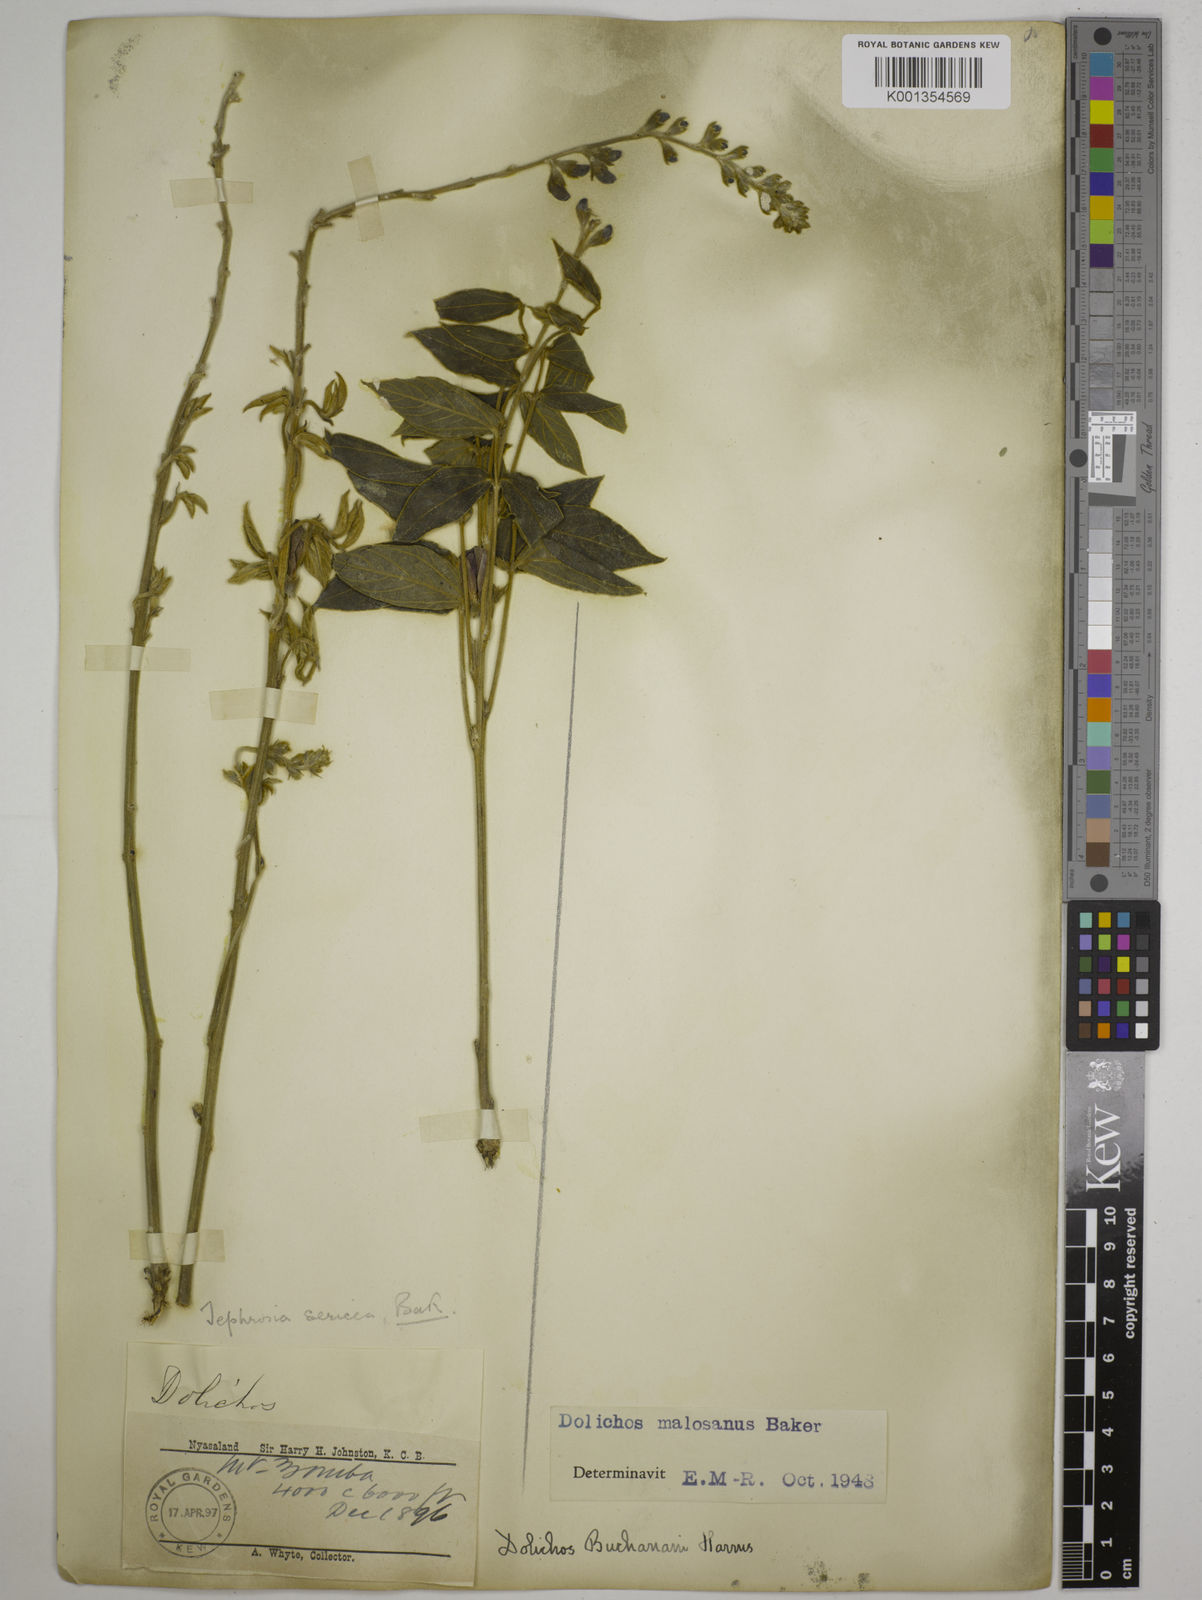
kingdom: Plantae
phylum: Tracheophyta
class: Magnoliopsida
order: Fabales
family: Fabaceae
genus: Dolichos
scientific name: Dolichos kilimandscharicus
